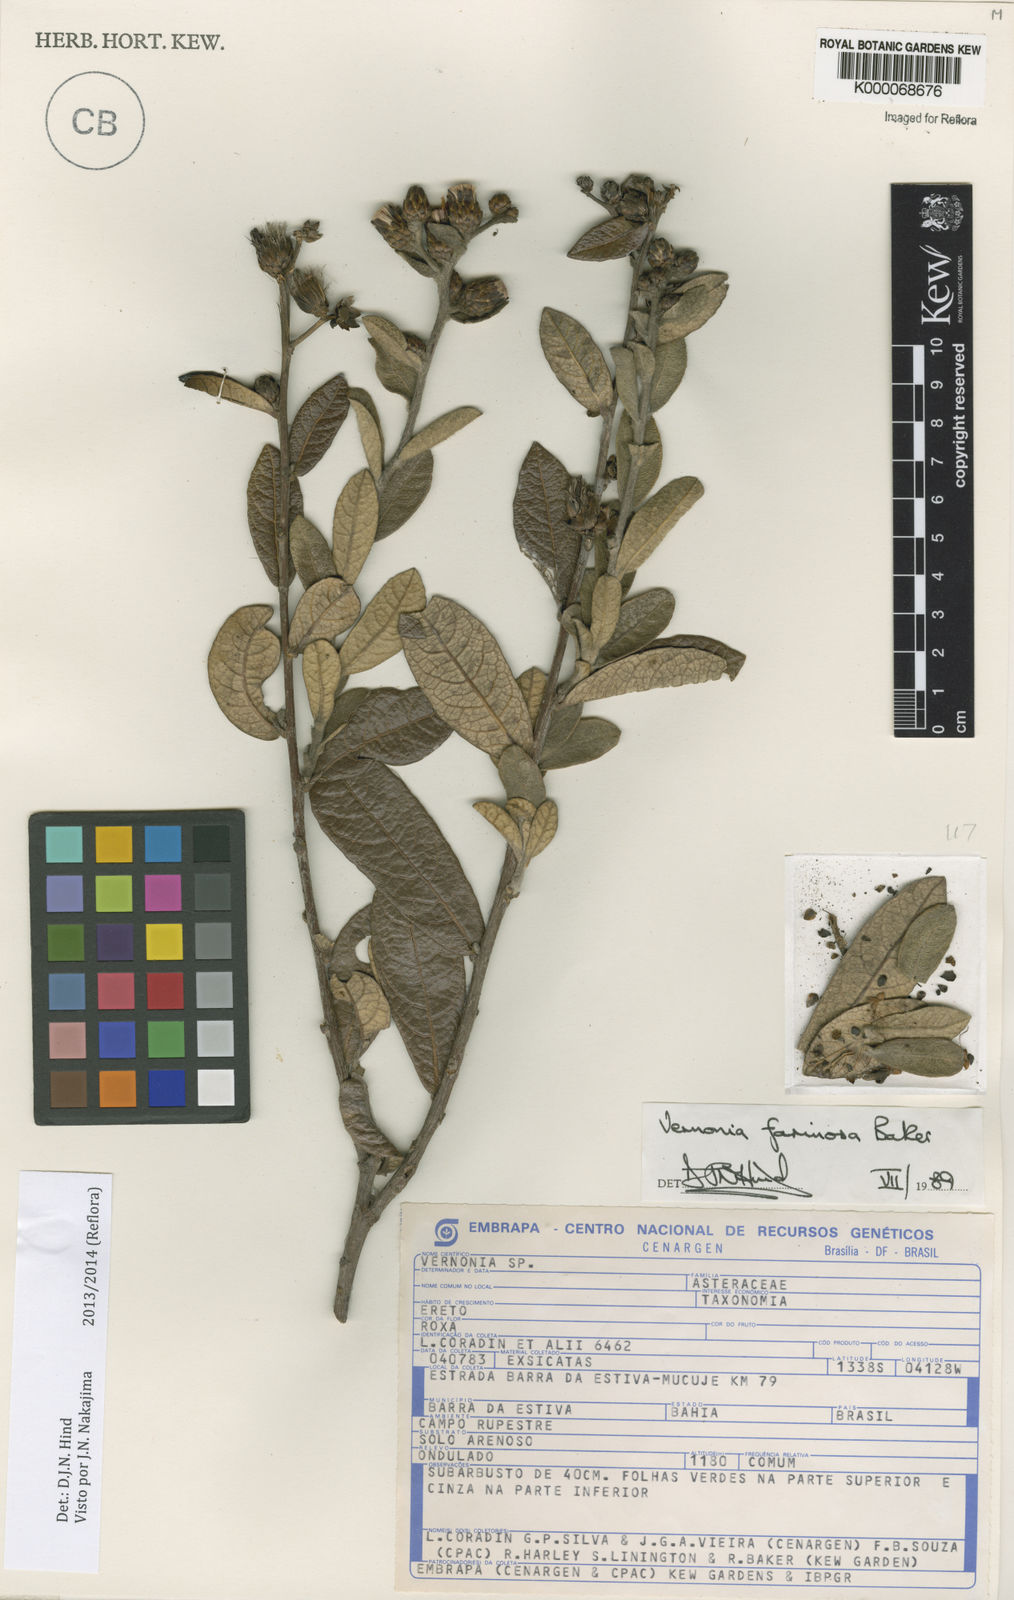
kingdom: Plantae
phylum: Tracheophyta
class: Magnoliopsida
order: Asterales
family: Asteraceae
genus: Lessingianthus
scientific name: Lessingianthus farinosus
